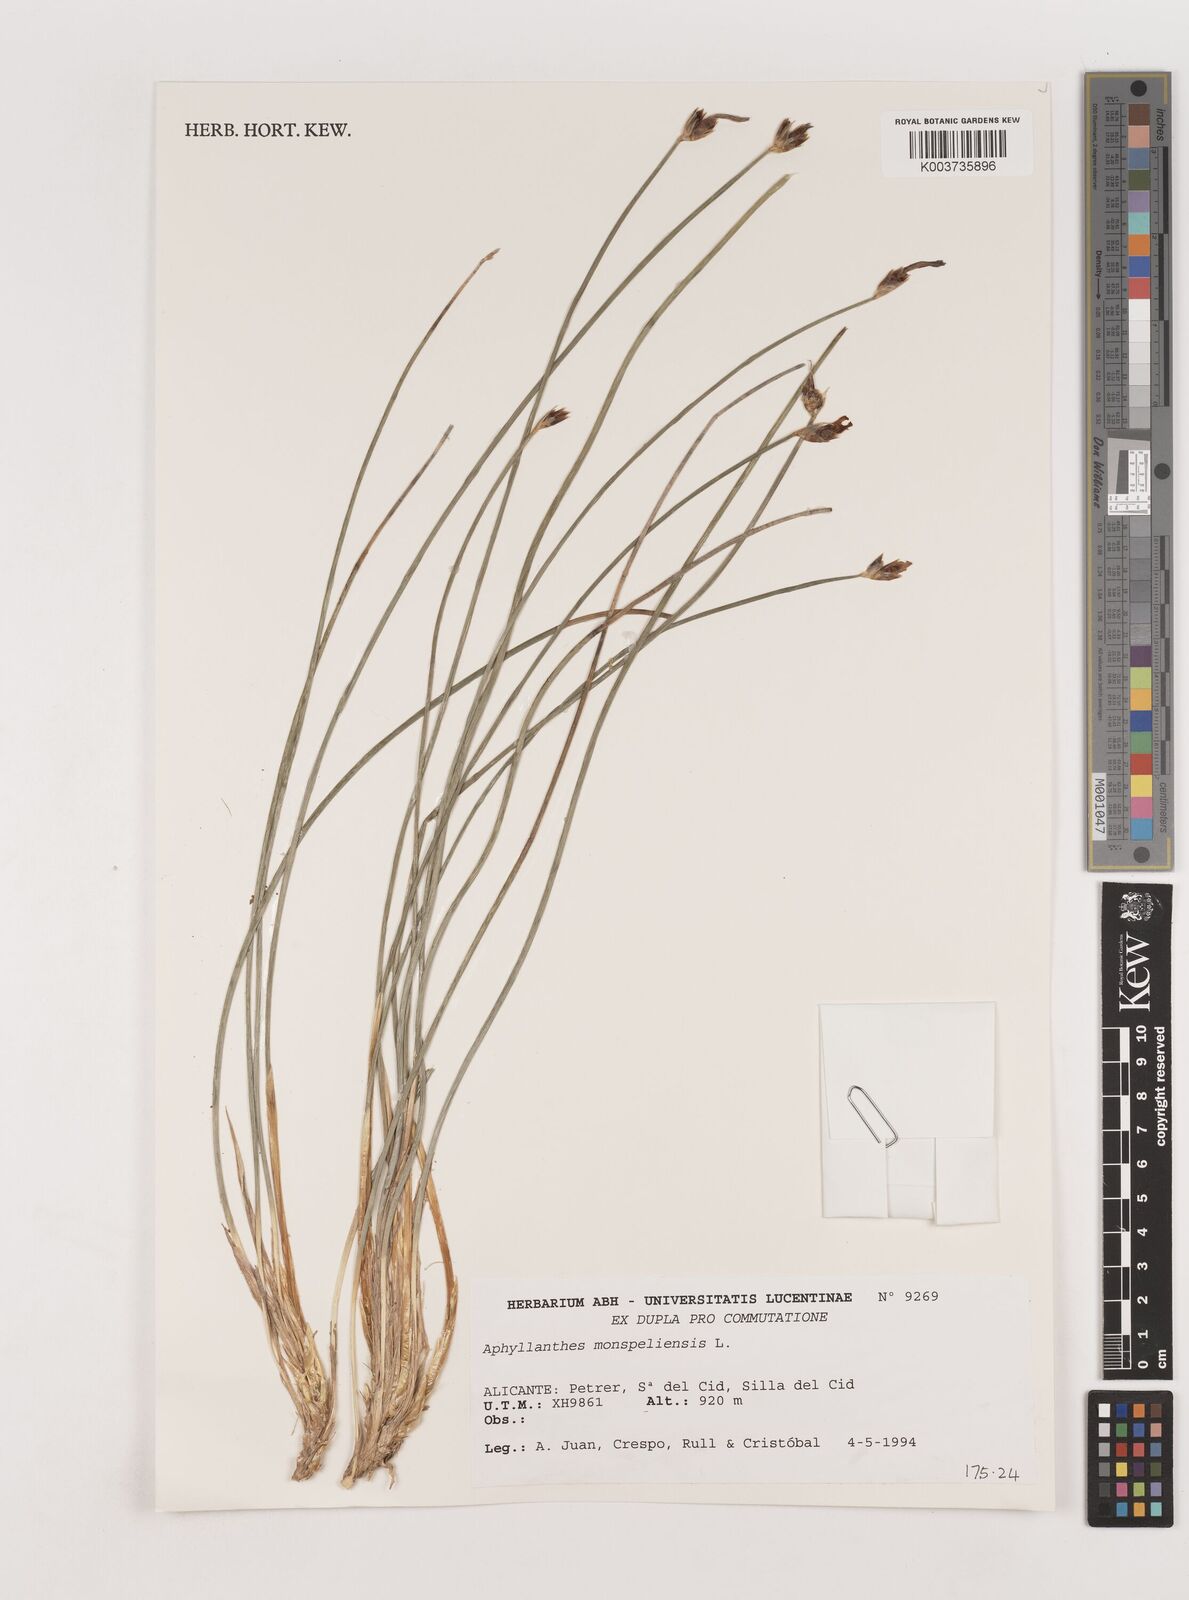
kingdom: Plantae
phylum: Tracheophyta
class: Liliopsida
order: Asparagales
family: Asparagaceae
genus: Aphyllanthes
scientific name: Aphyllanthes monspeliensis
